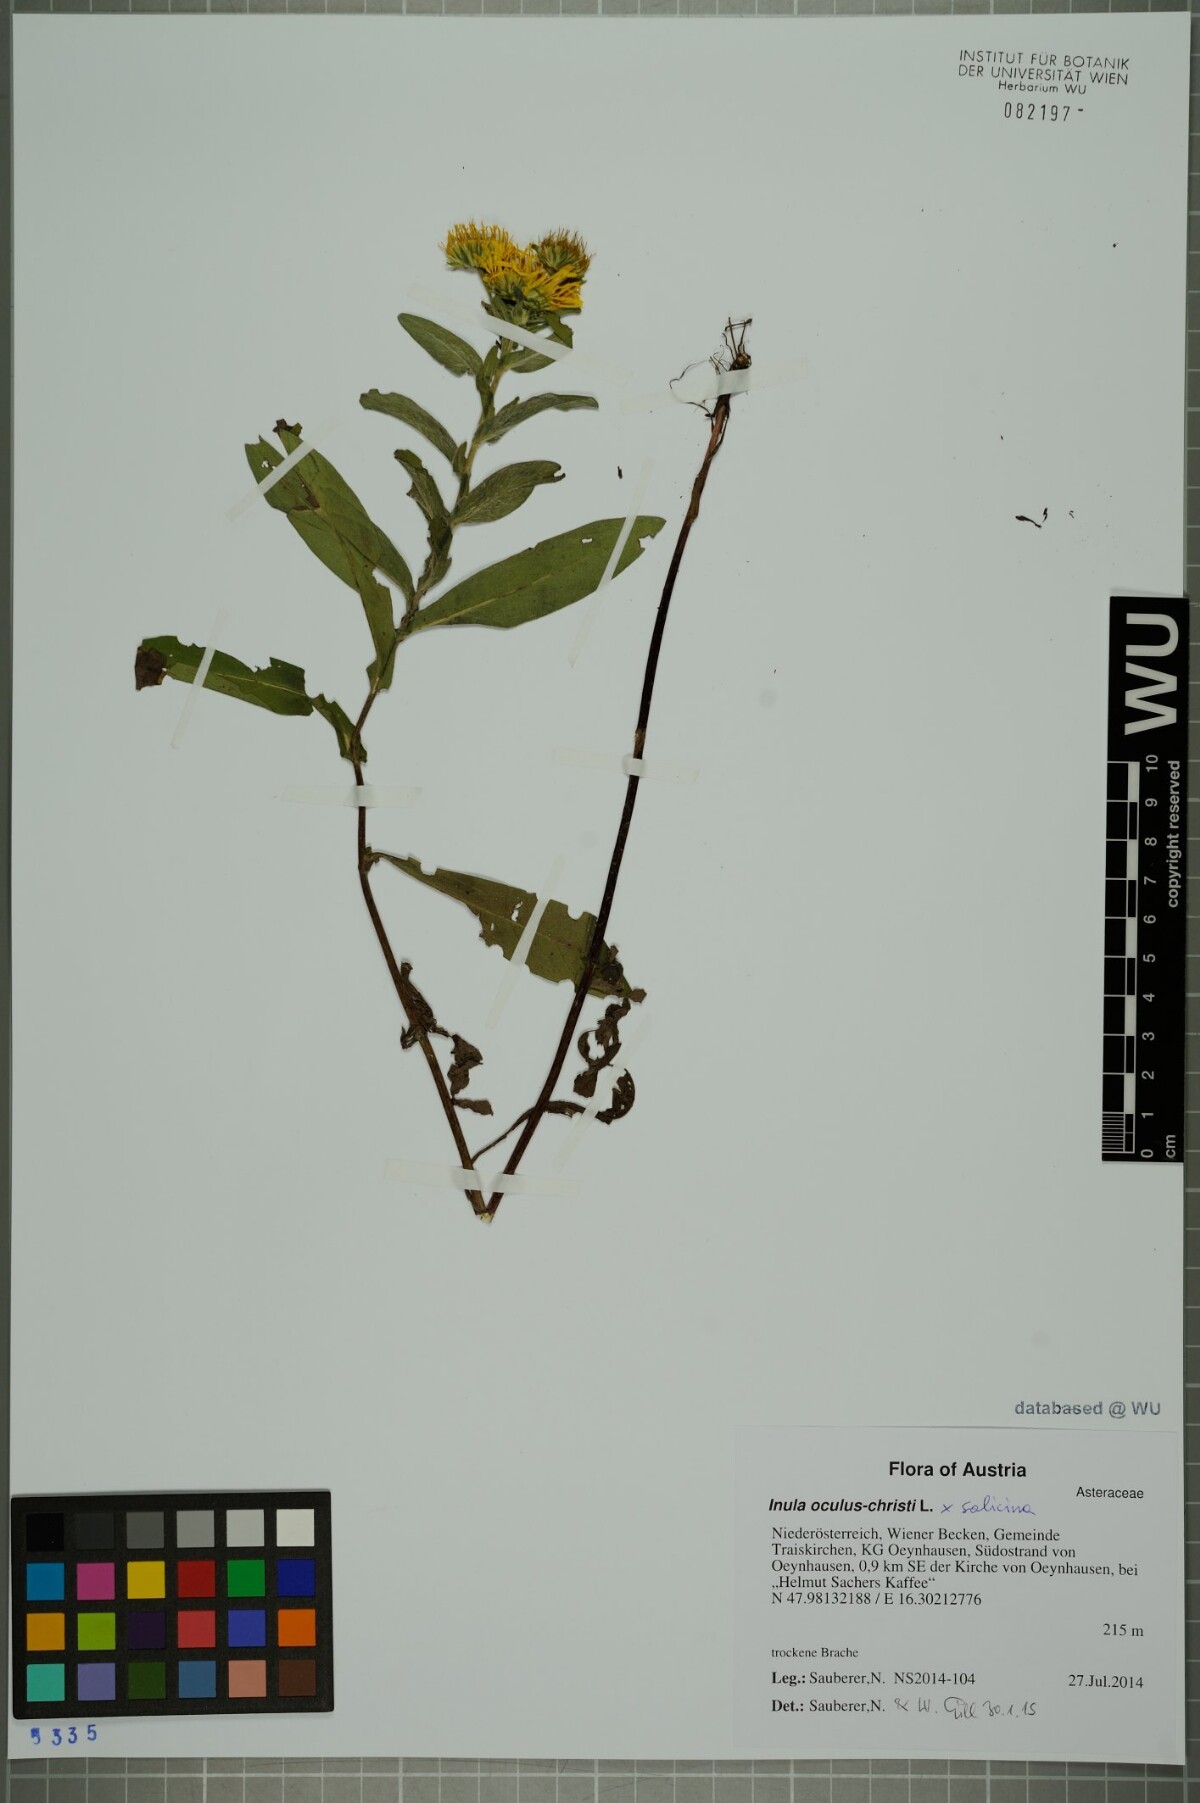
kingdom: Plantae
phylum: Tracheophyta
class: Magnoliopsida
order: Asterales
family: Asteraceae
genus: Pentanema
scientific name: Pentanema britannicum
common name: British elecampane
